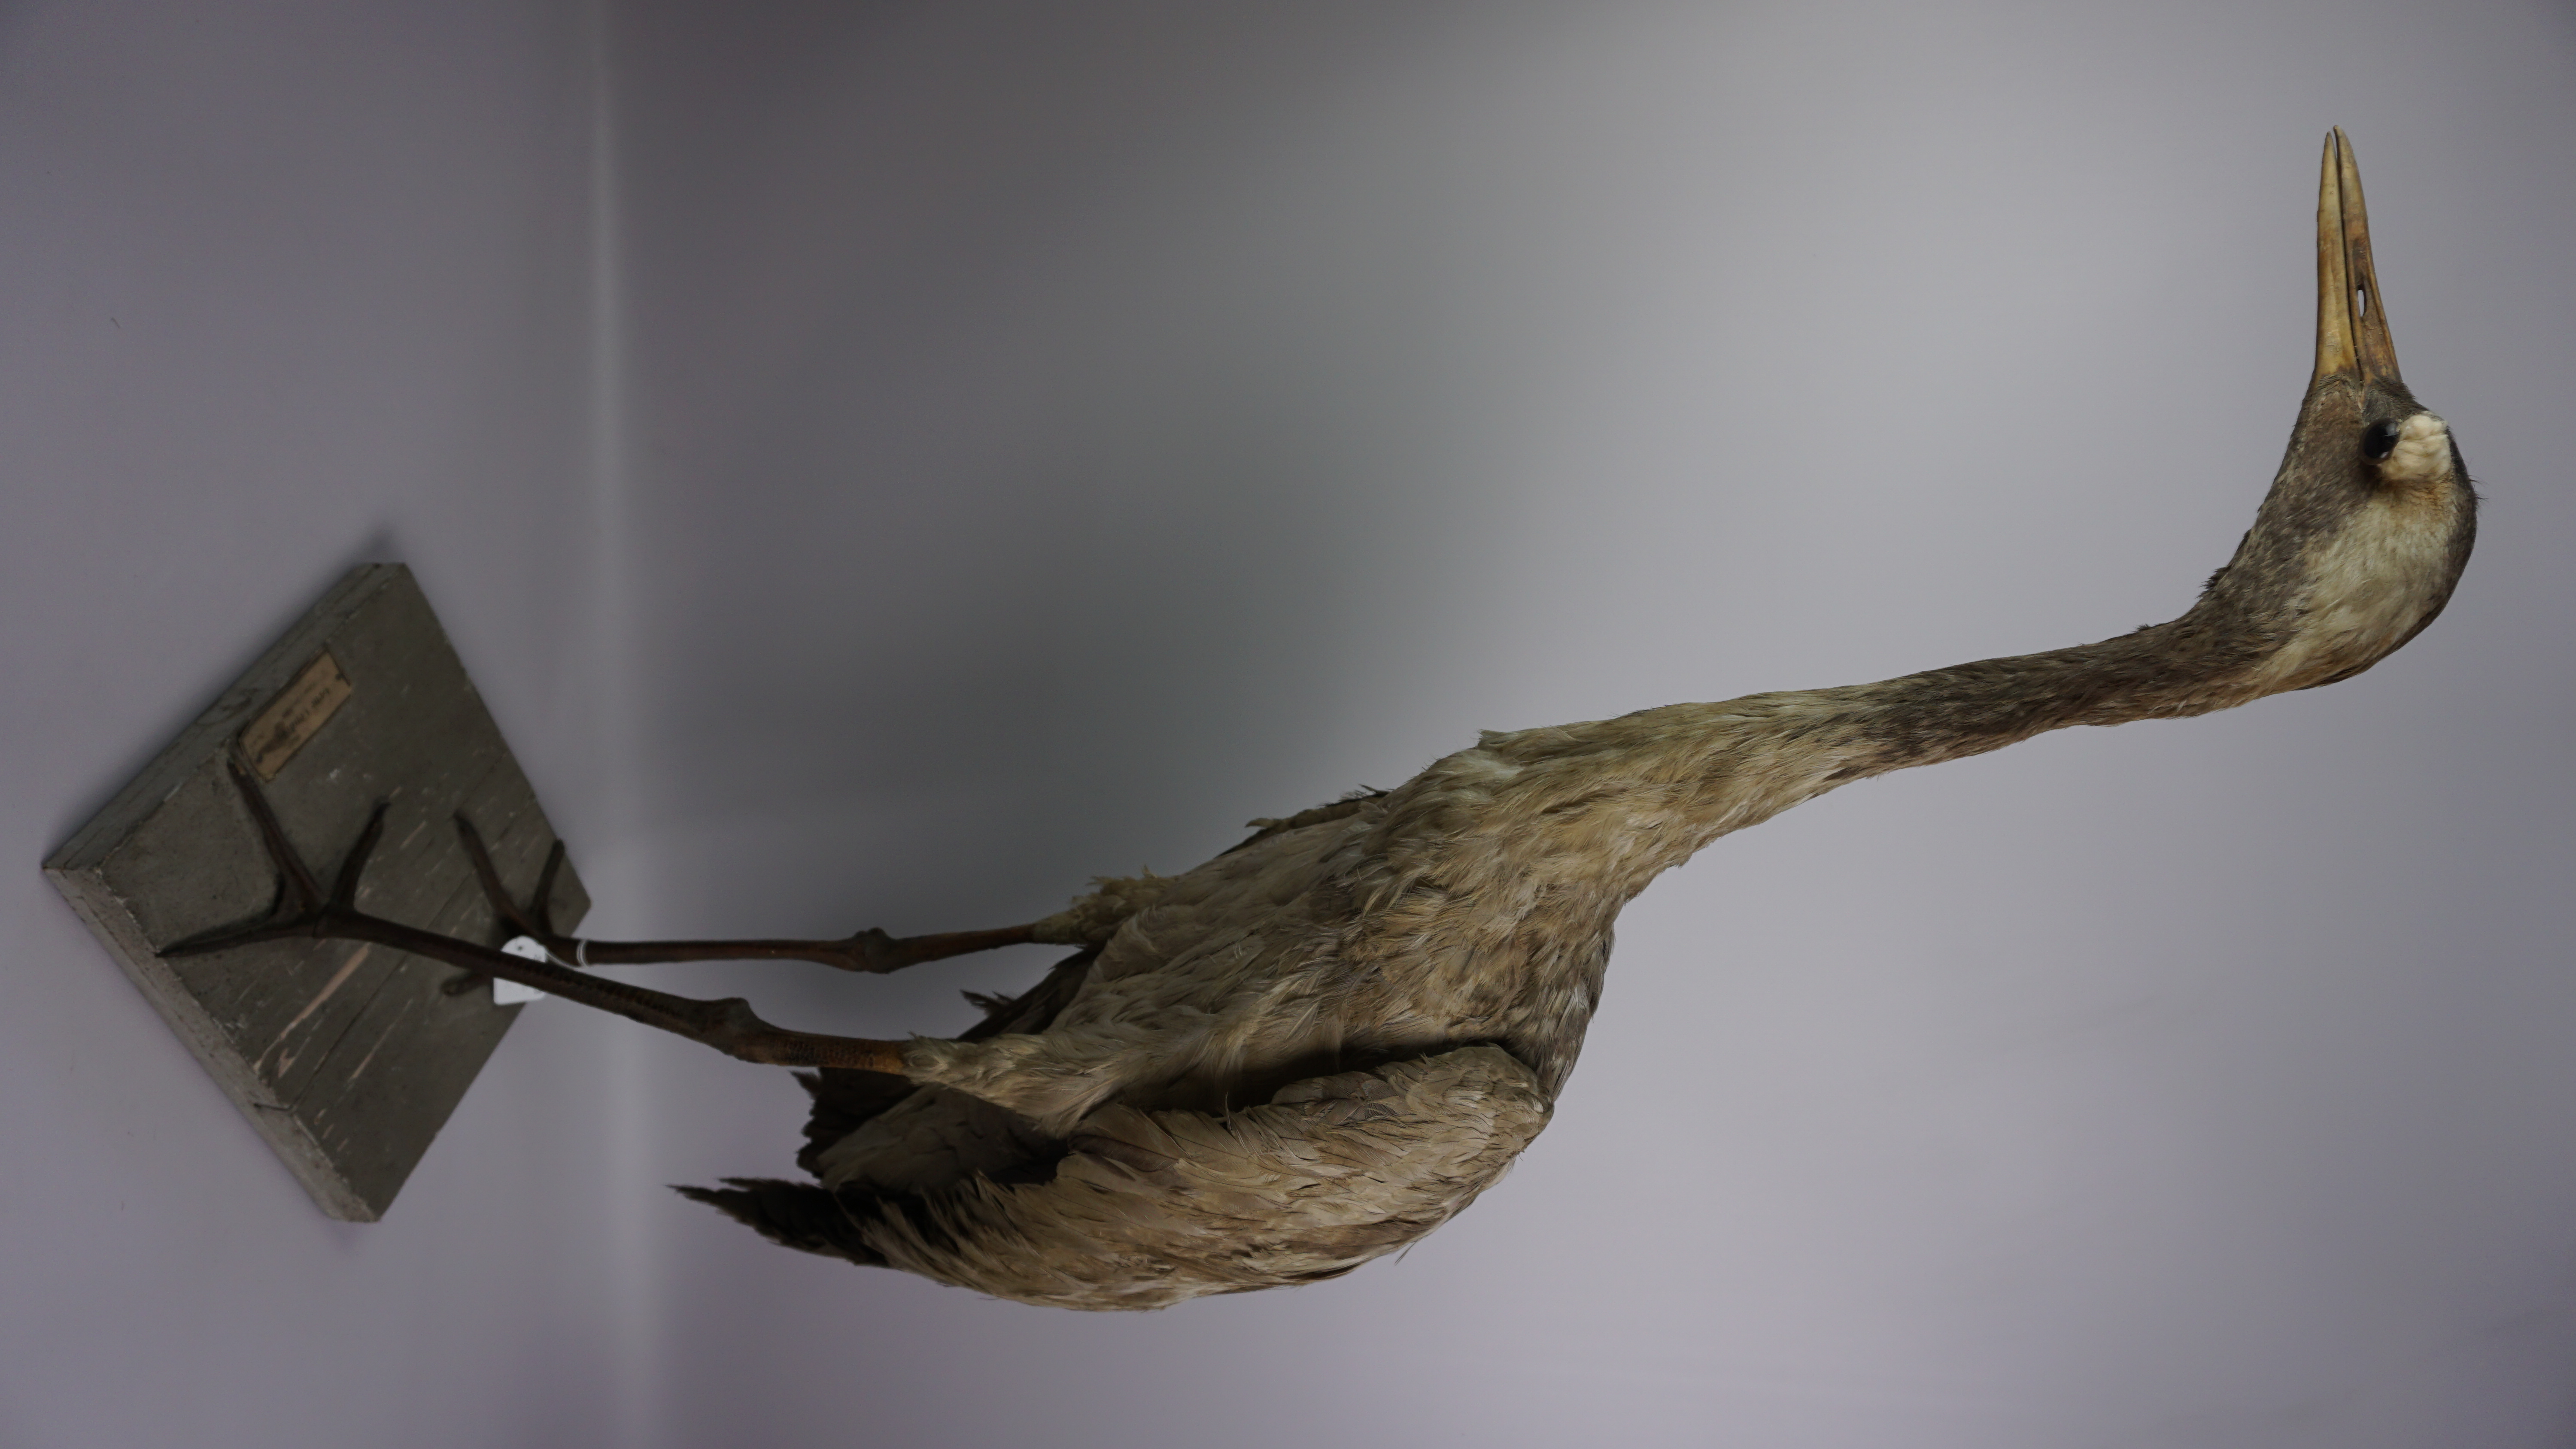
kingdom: Animalia
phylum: Chordata
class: Aves
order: Gruiformes
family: Gruidae
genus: Grus
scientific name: Grus grus
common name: Common crane
